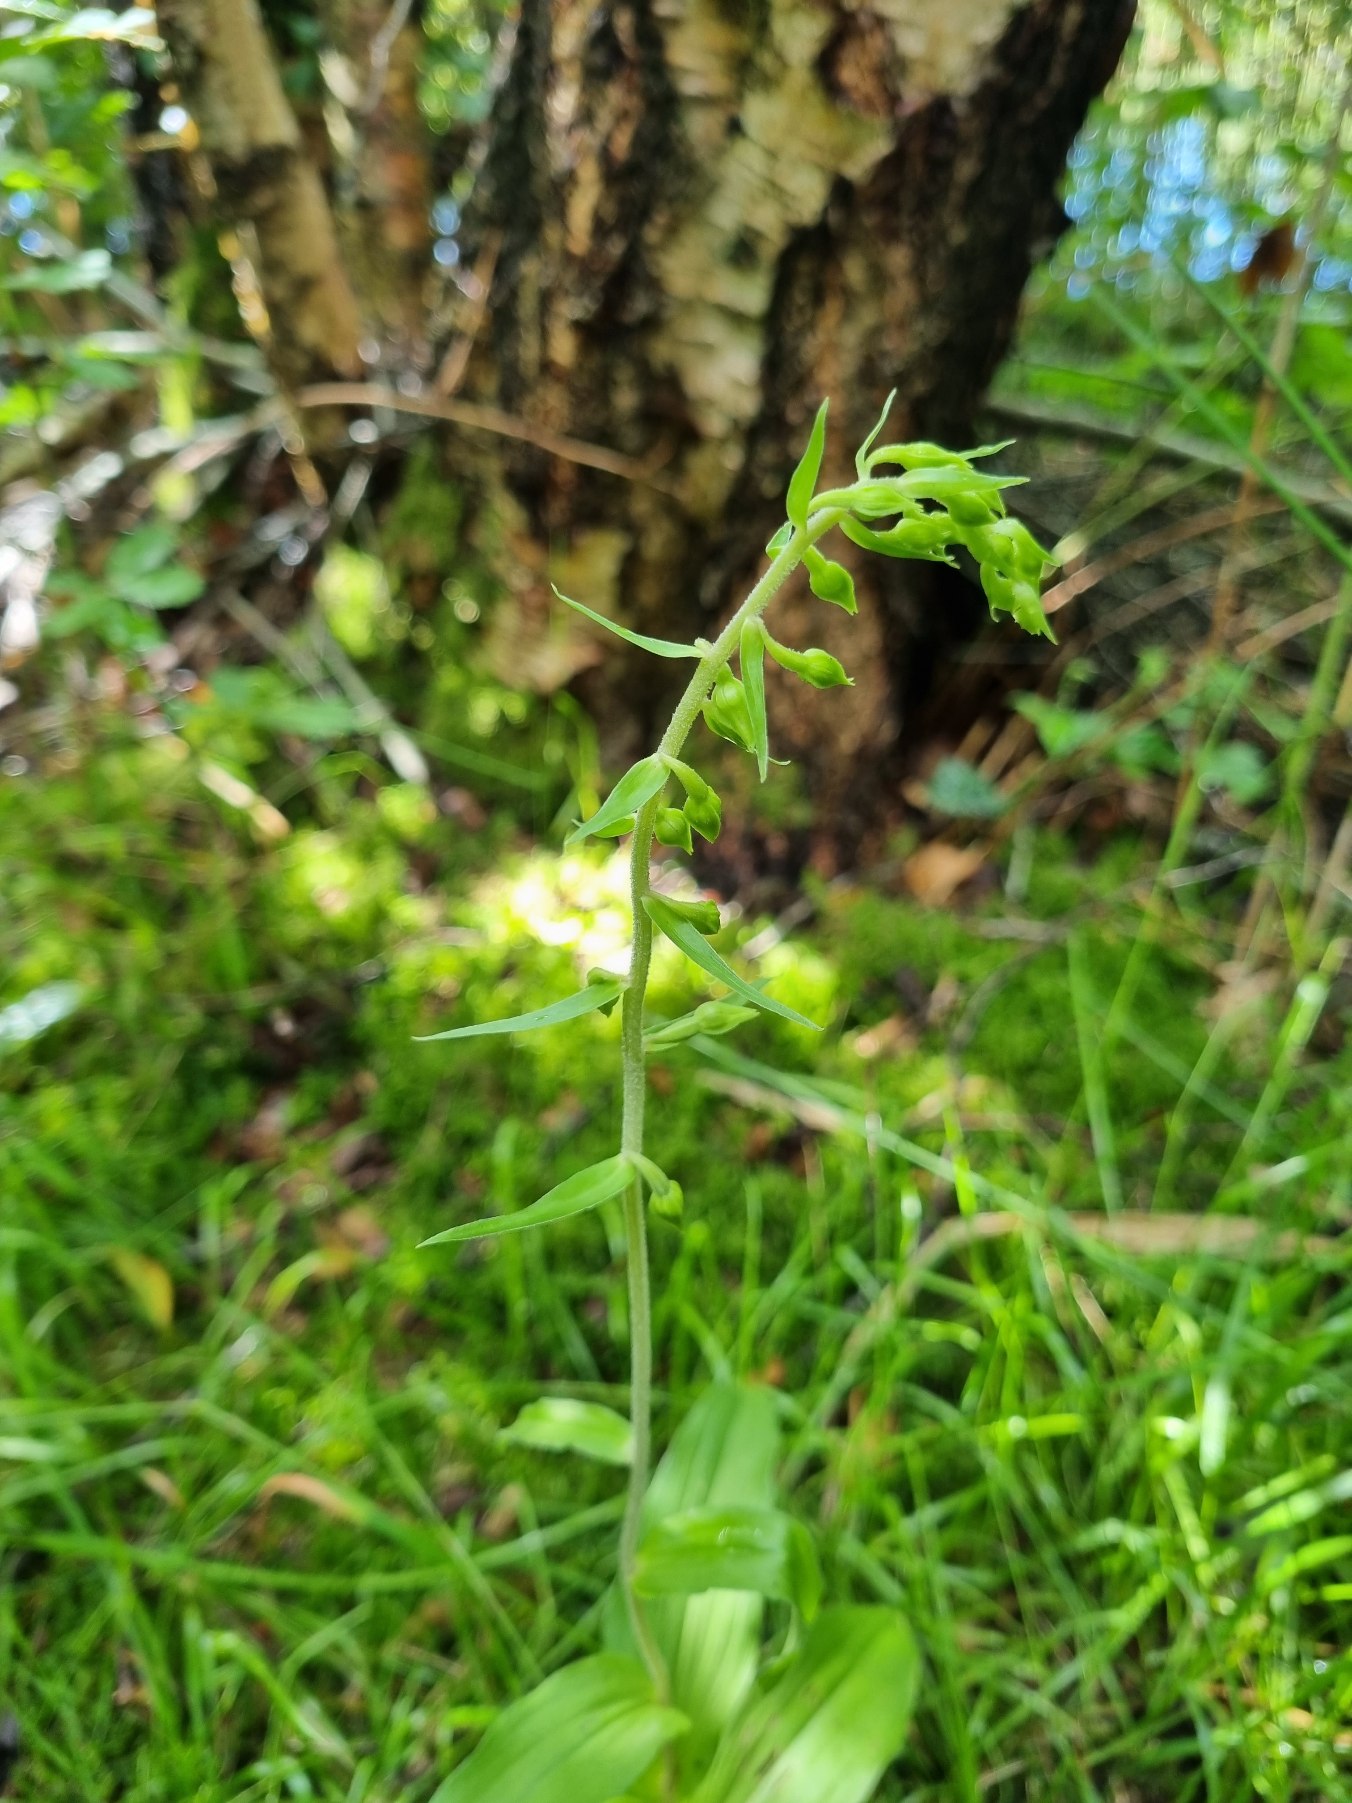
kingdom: Plantae
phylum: Tracheophyta
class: Liliopsida
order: Asparagales
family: Orchidaceae
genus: Epipactis
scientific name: Epipactis helleborine
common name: Skov-hullæbe
